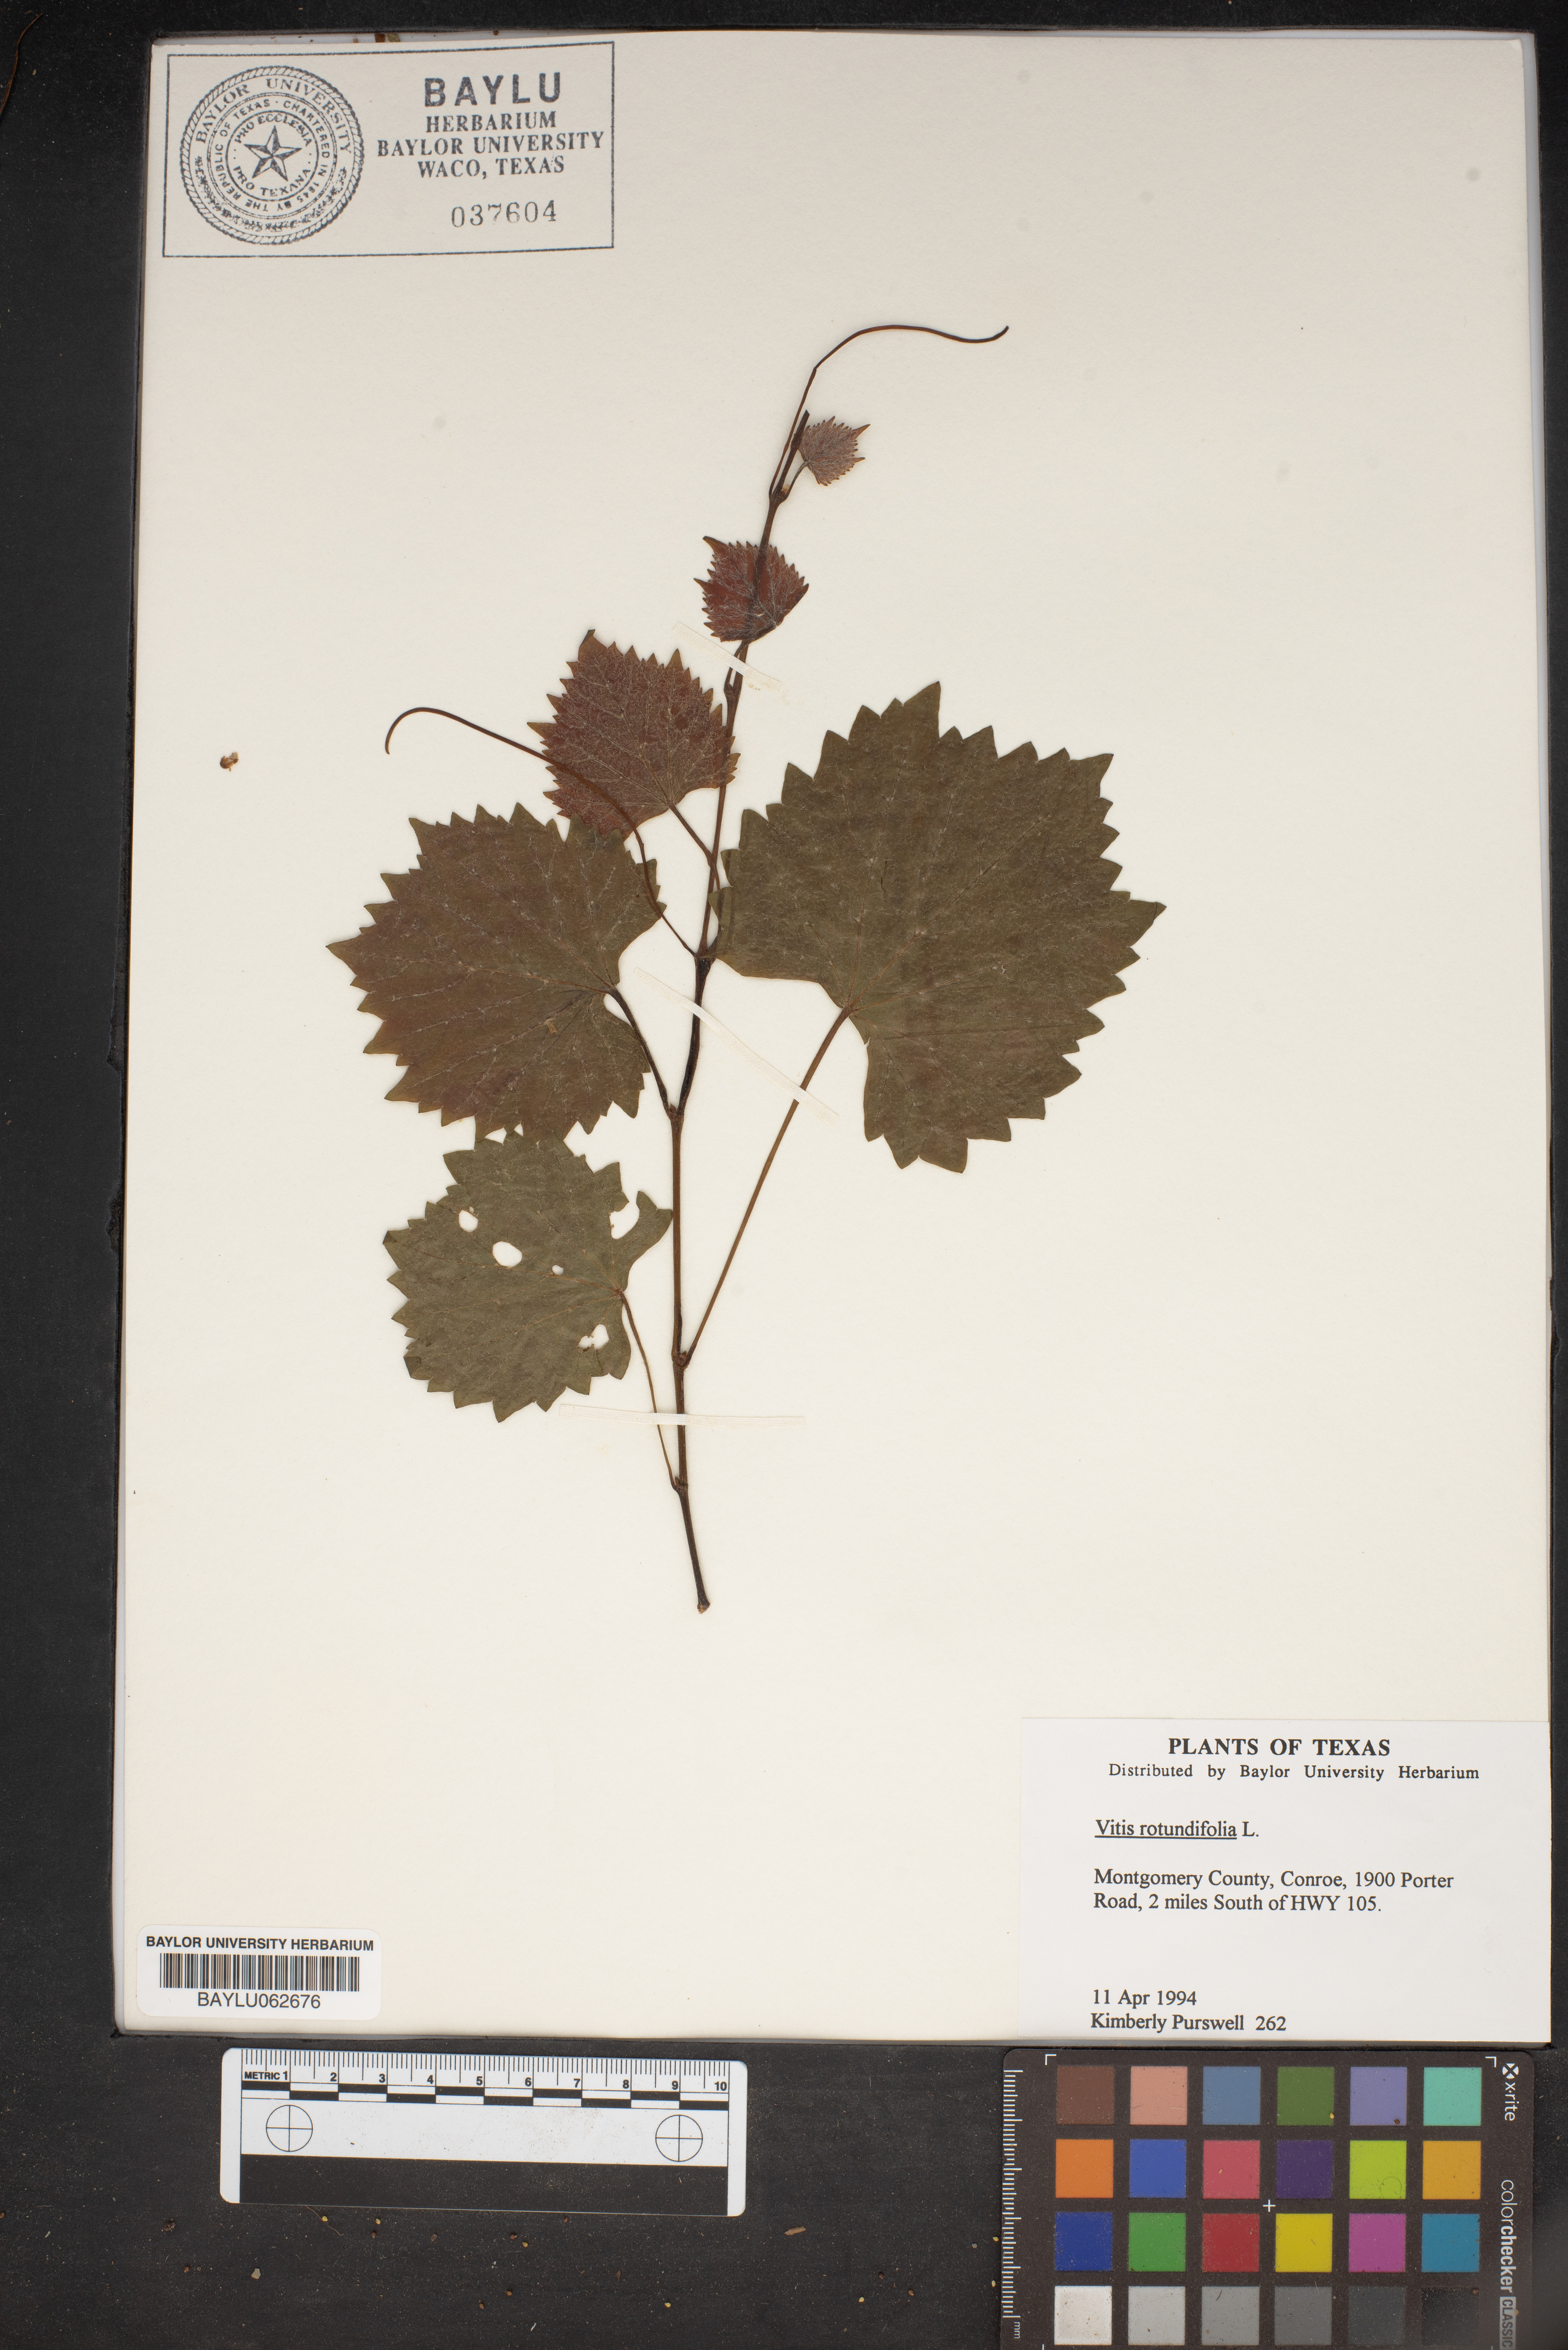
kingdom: Plantae
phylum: Tracheophyta
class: Magnoliopsida
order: Vitales
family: Vitaceae
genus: Vitis
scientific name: Vitis rotundifolia
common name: Muscadine grape
